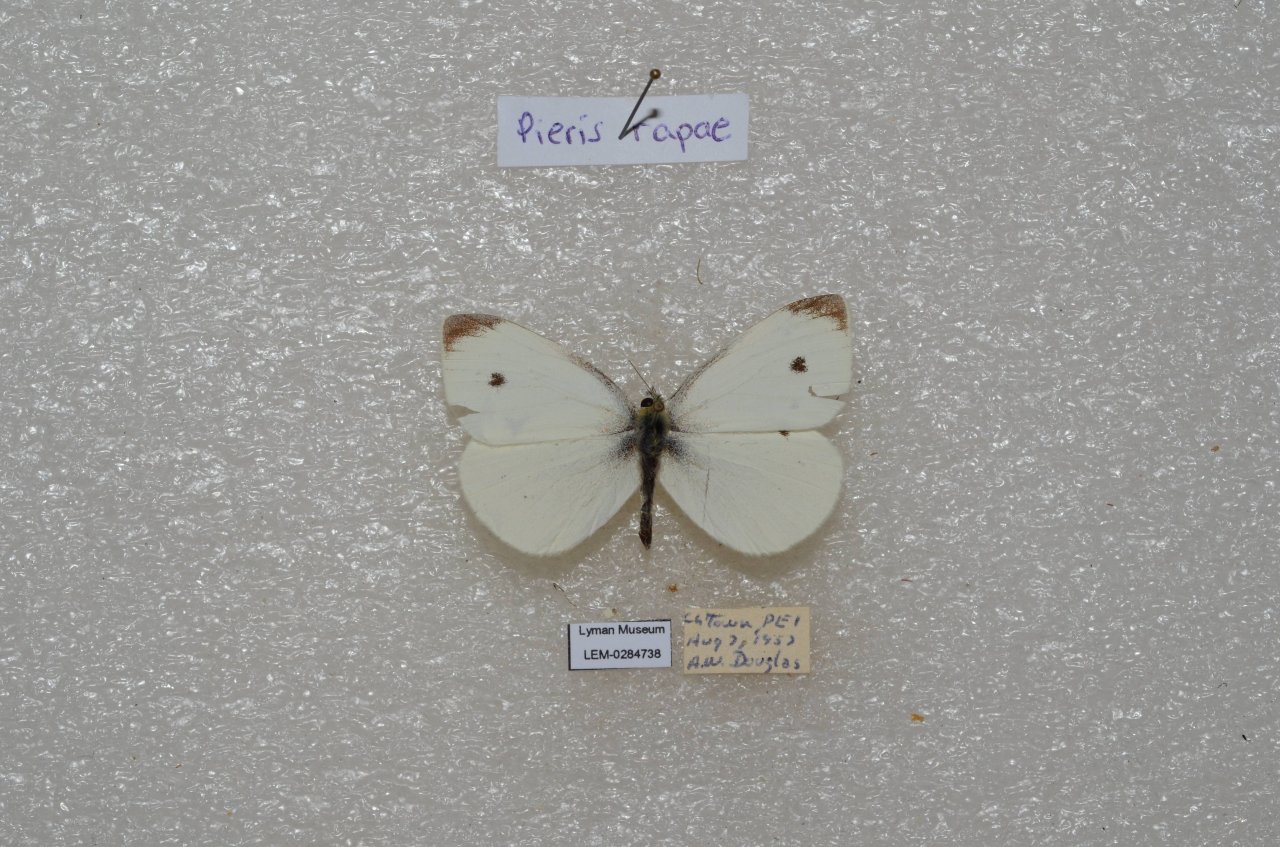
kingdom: Animalia
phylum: Arthropoda
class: Insecta
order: Lepidoptera
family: Pieridae
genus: Pieris
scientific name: Pieris rapae
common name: Cabbage White
